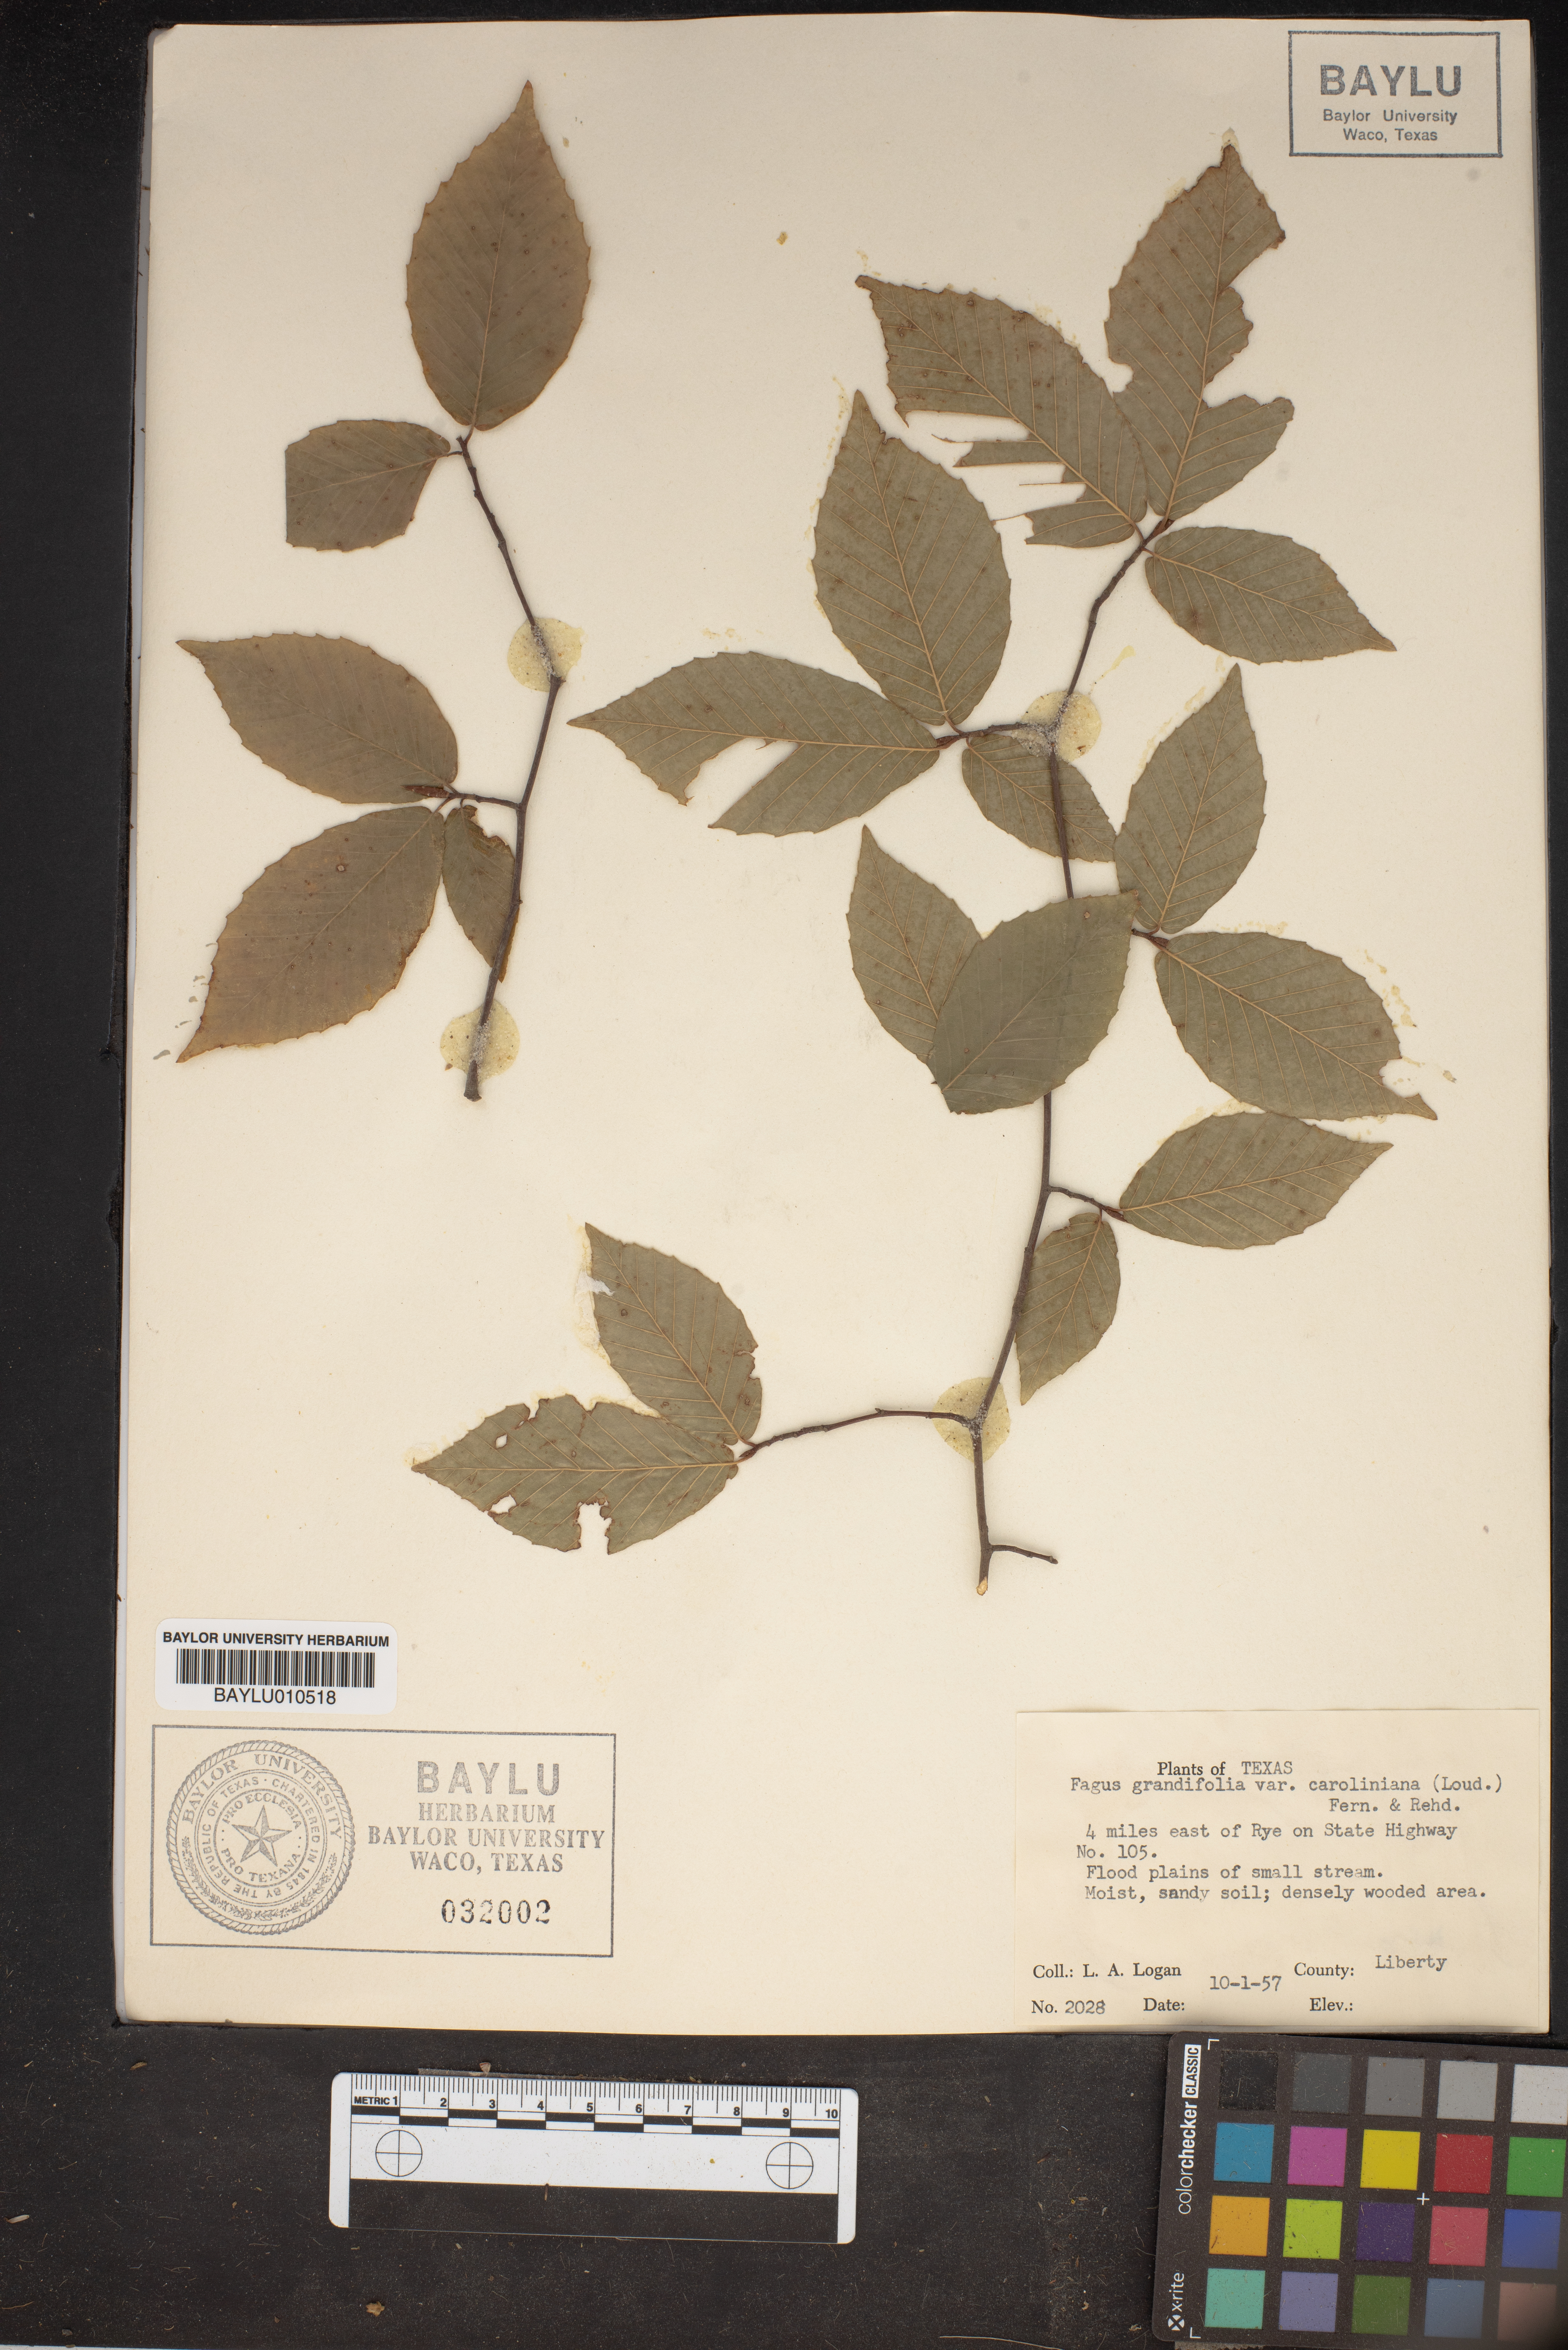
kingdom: Plantae
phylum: Tracheophyta
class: Magnoliopsida
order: Fagales
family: Fagaceae
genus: Fagus
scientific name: Fagus grandifolia
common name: American beech
